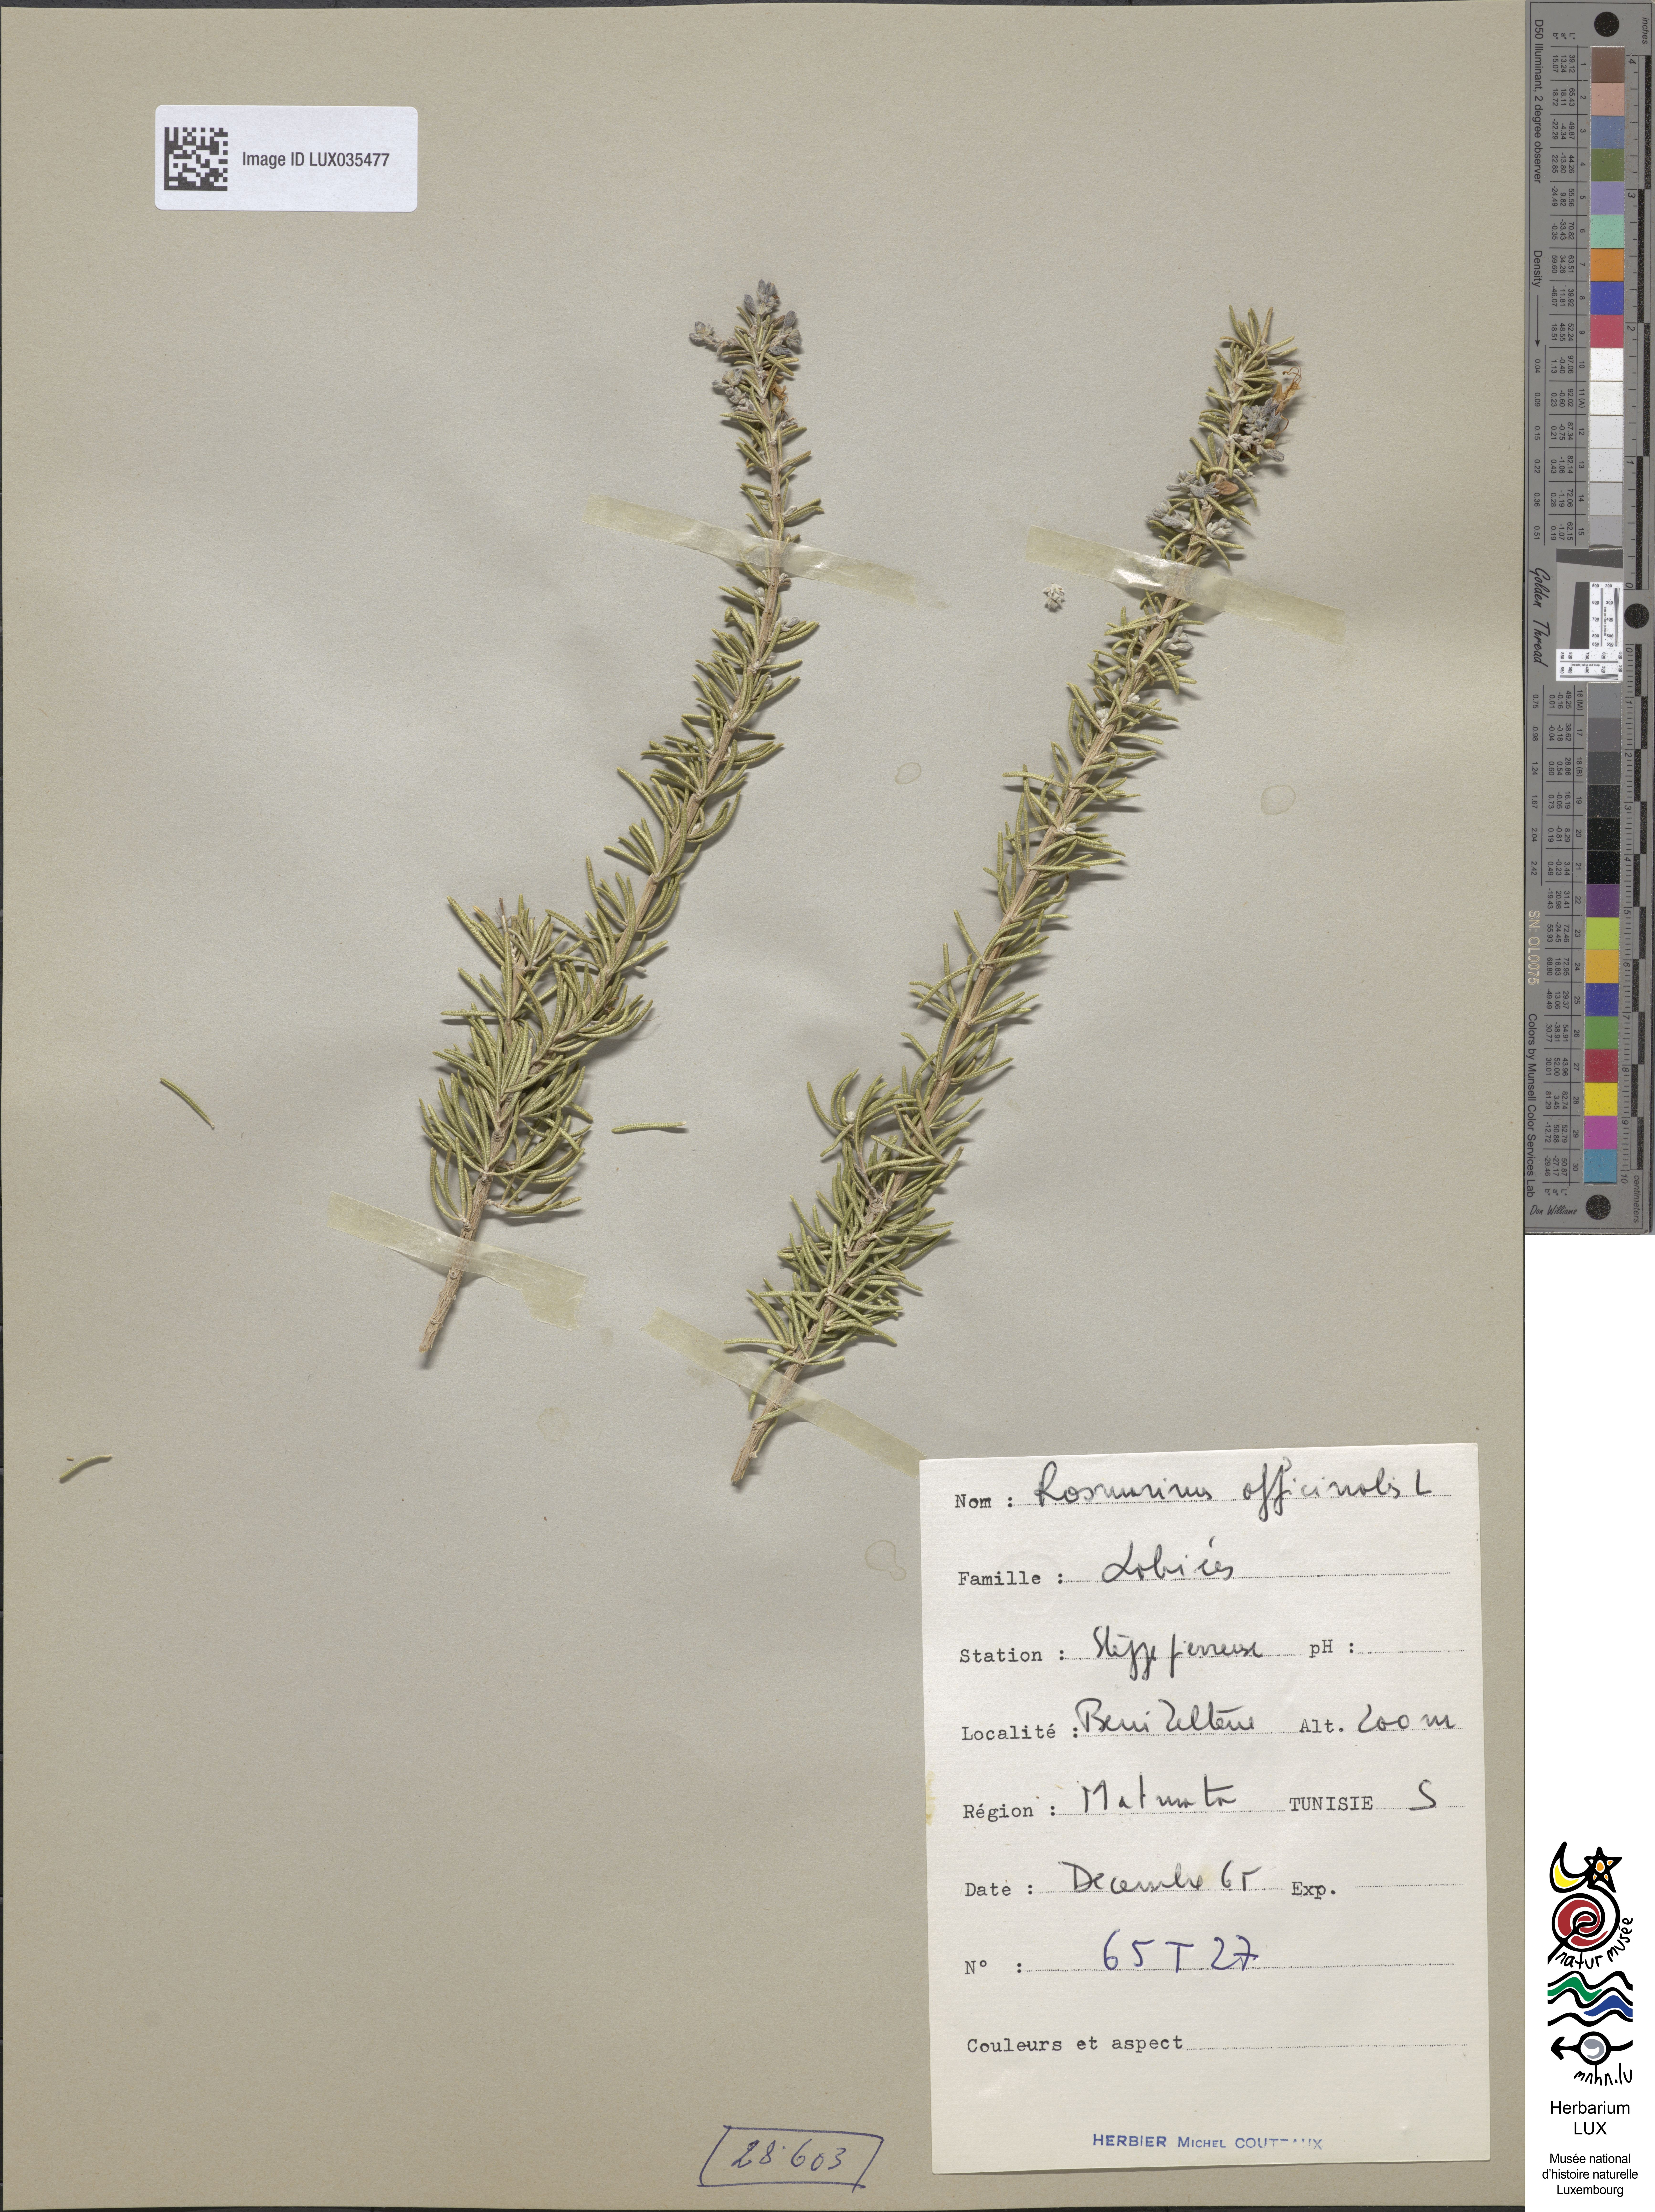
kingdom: Plantae
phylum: Tracheophyta
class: Magnoliopsida
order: Lamiales
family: Lamiaceae
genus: Salvia
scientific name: Salvia rosmarinus
